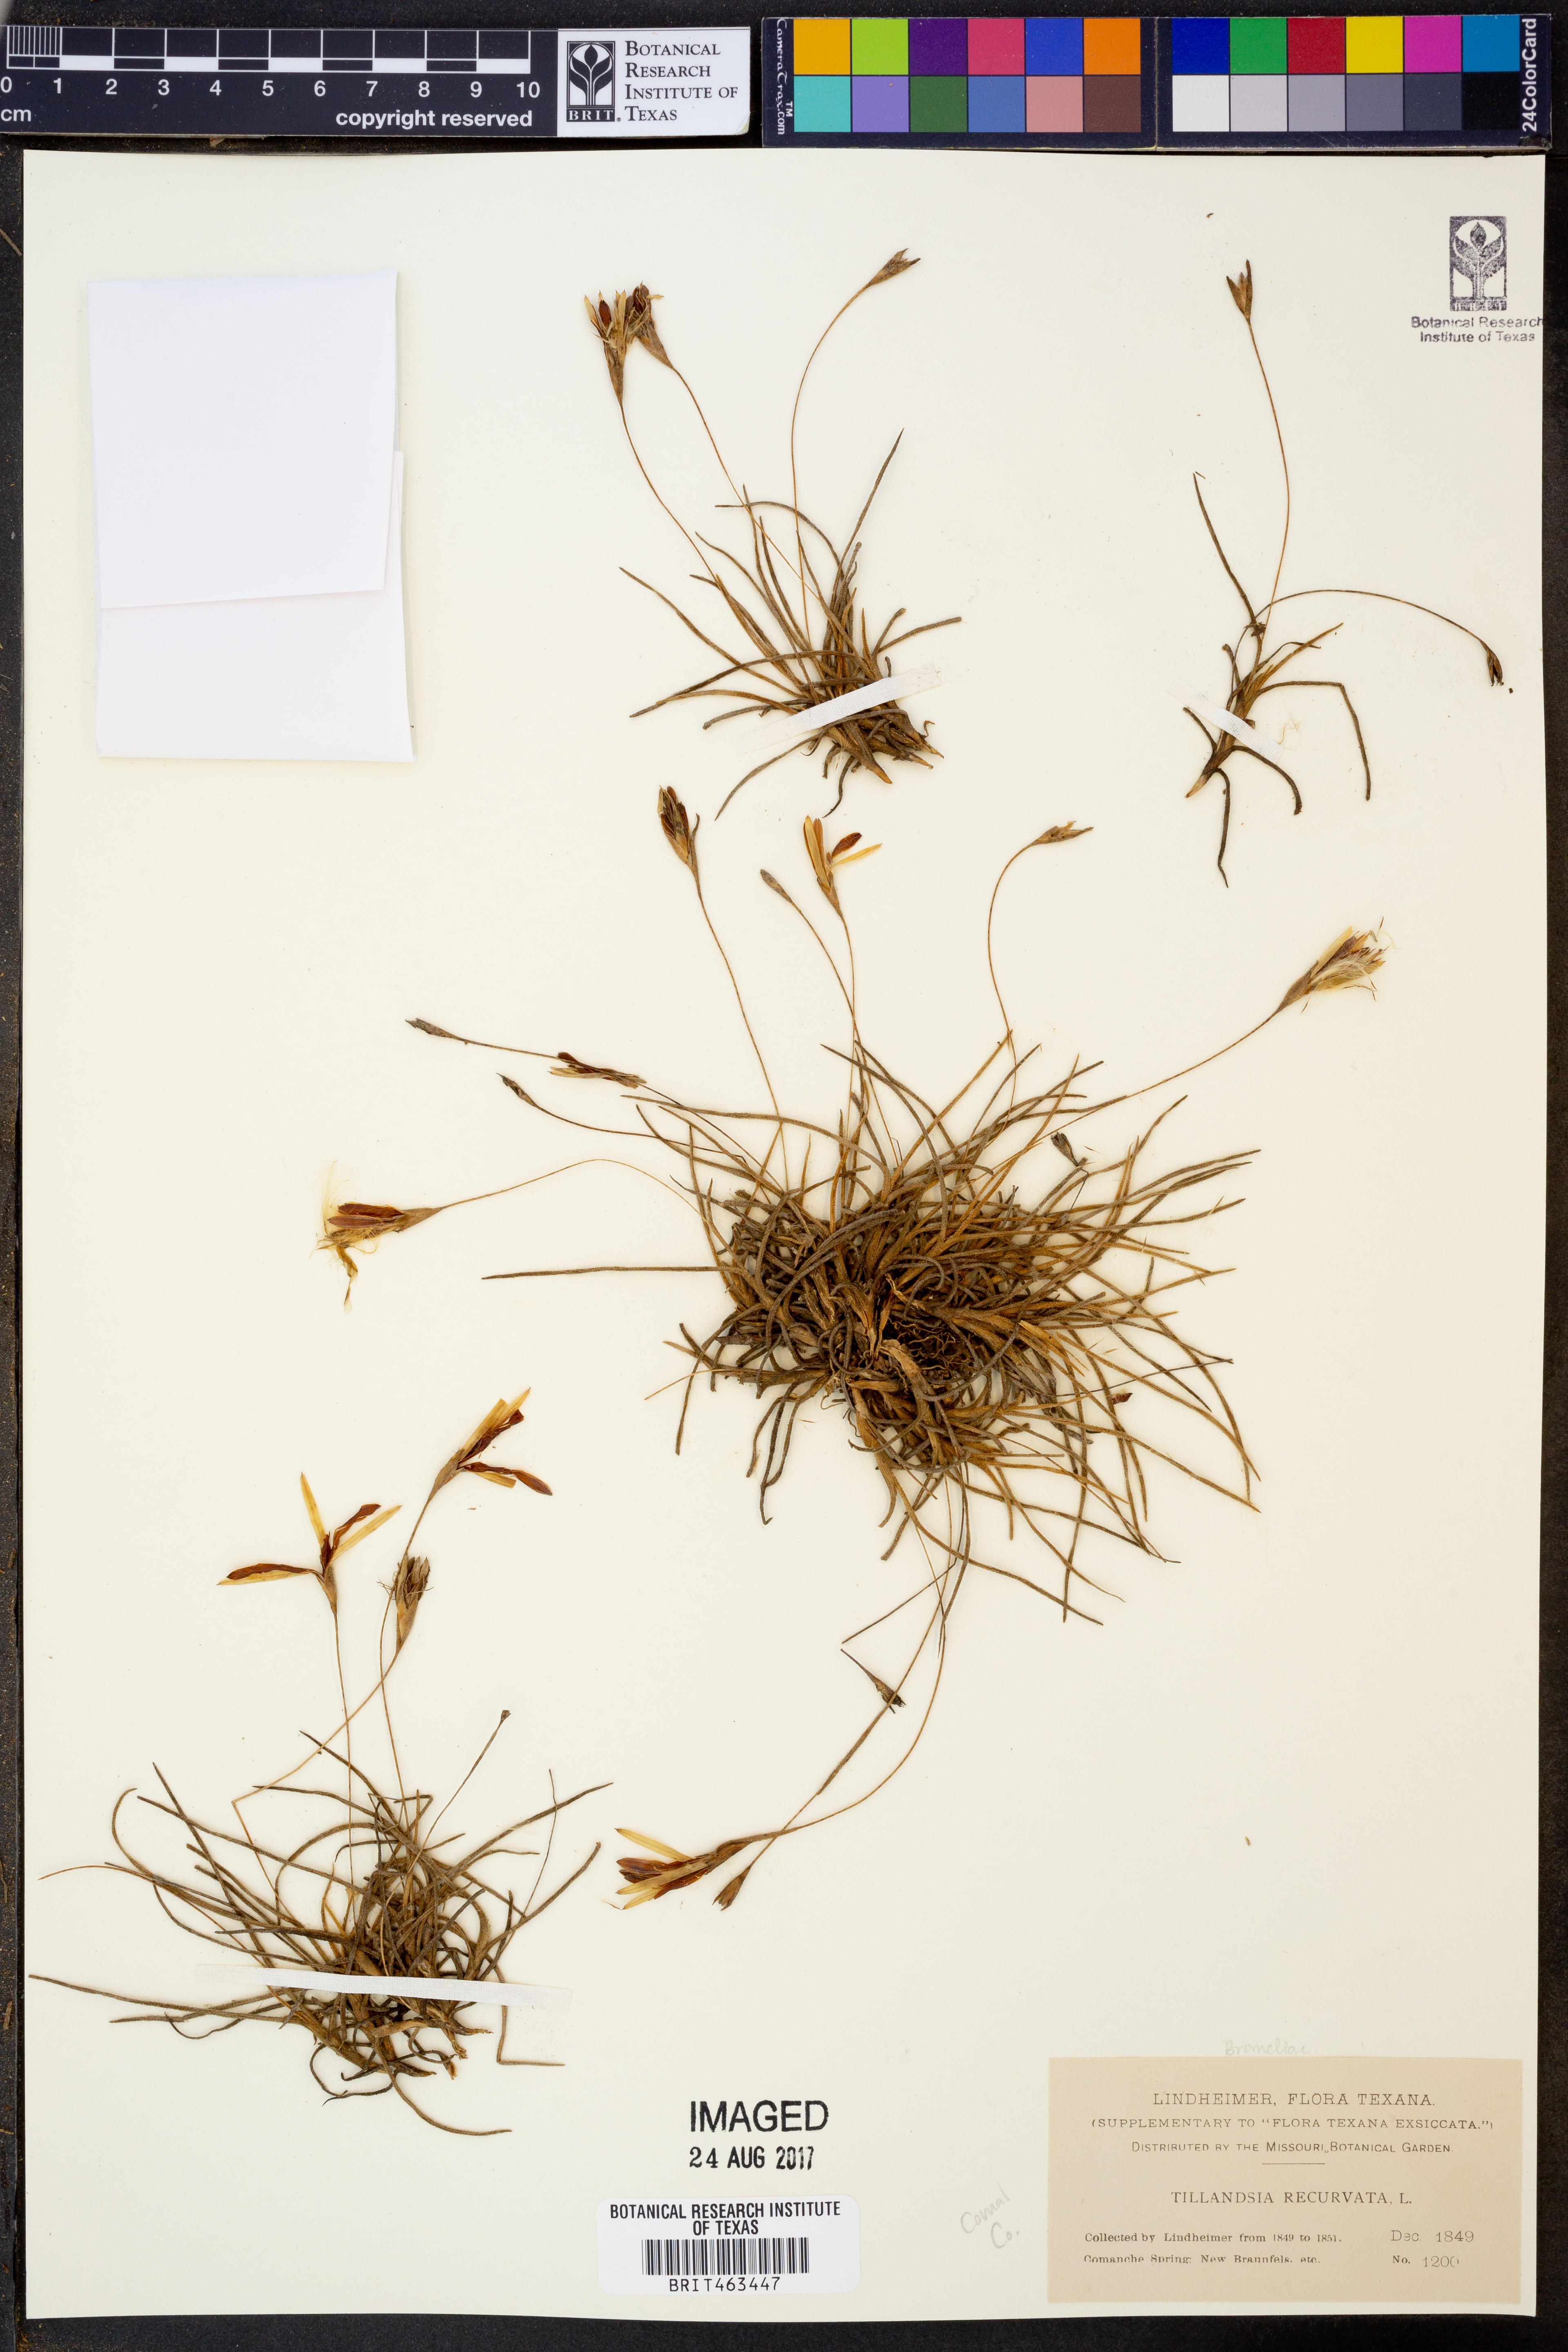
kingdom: Plantae
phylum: Tracheophyta
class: Liliopsida
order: Poales
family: Bromeliaceae
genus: Tillandsia
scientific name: Tillandsia recurvata
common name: Small ballmoss
